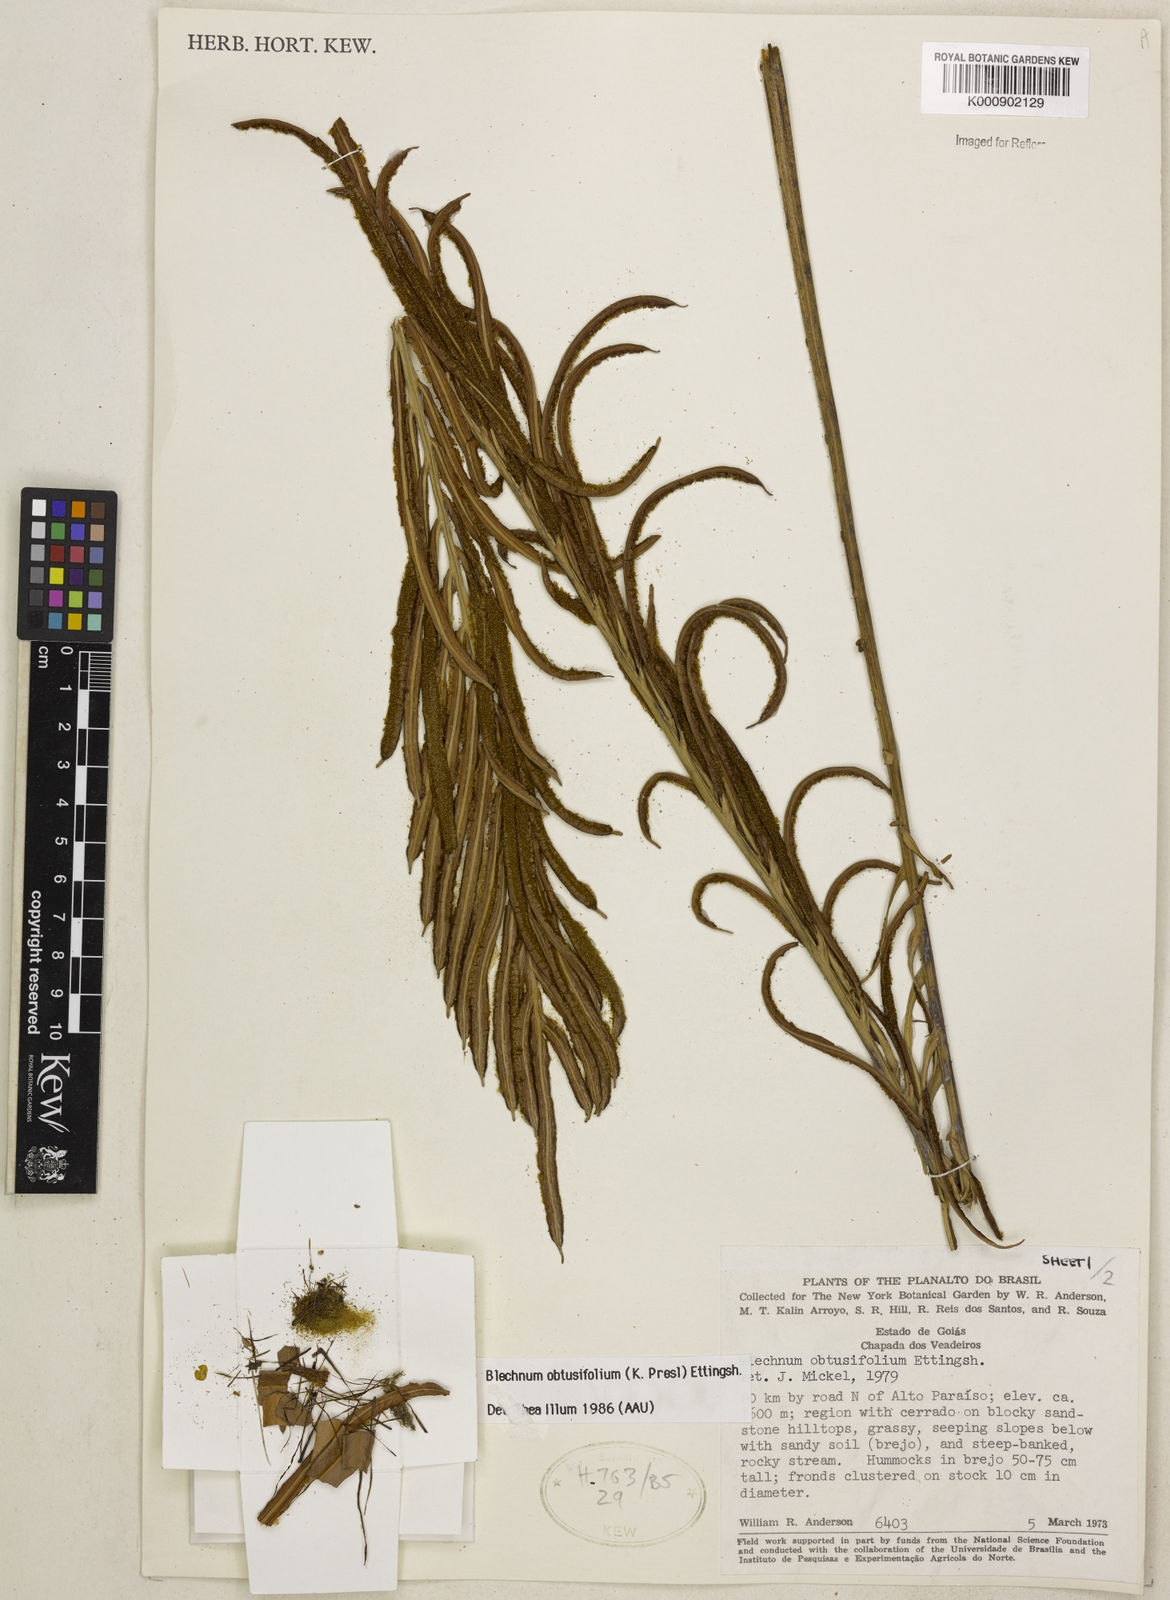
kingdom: Plantae
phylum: Tracheophyta
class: Polypodiopsida
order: Polypodiales
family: Blechnaceae
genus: Lomariocycas
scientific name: Lomariocycas obtusifolia
